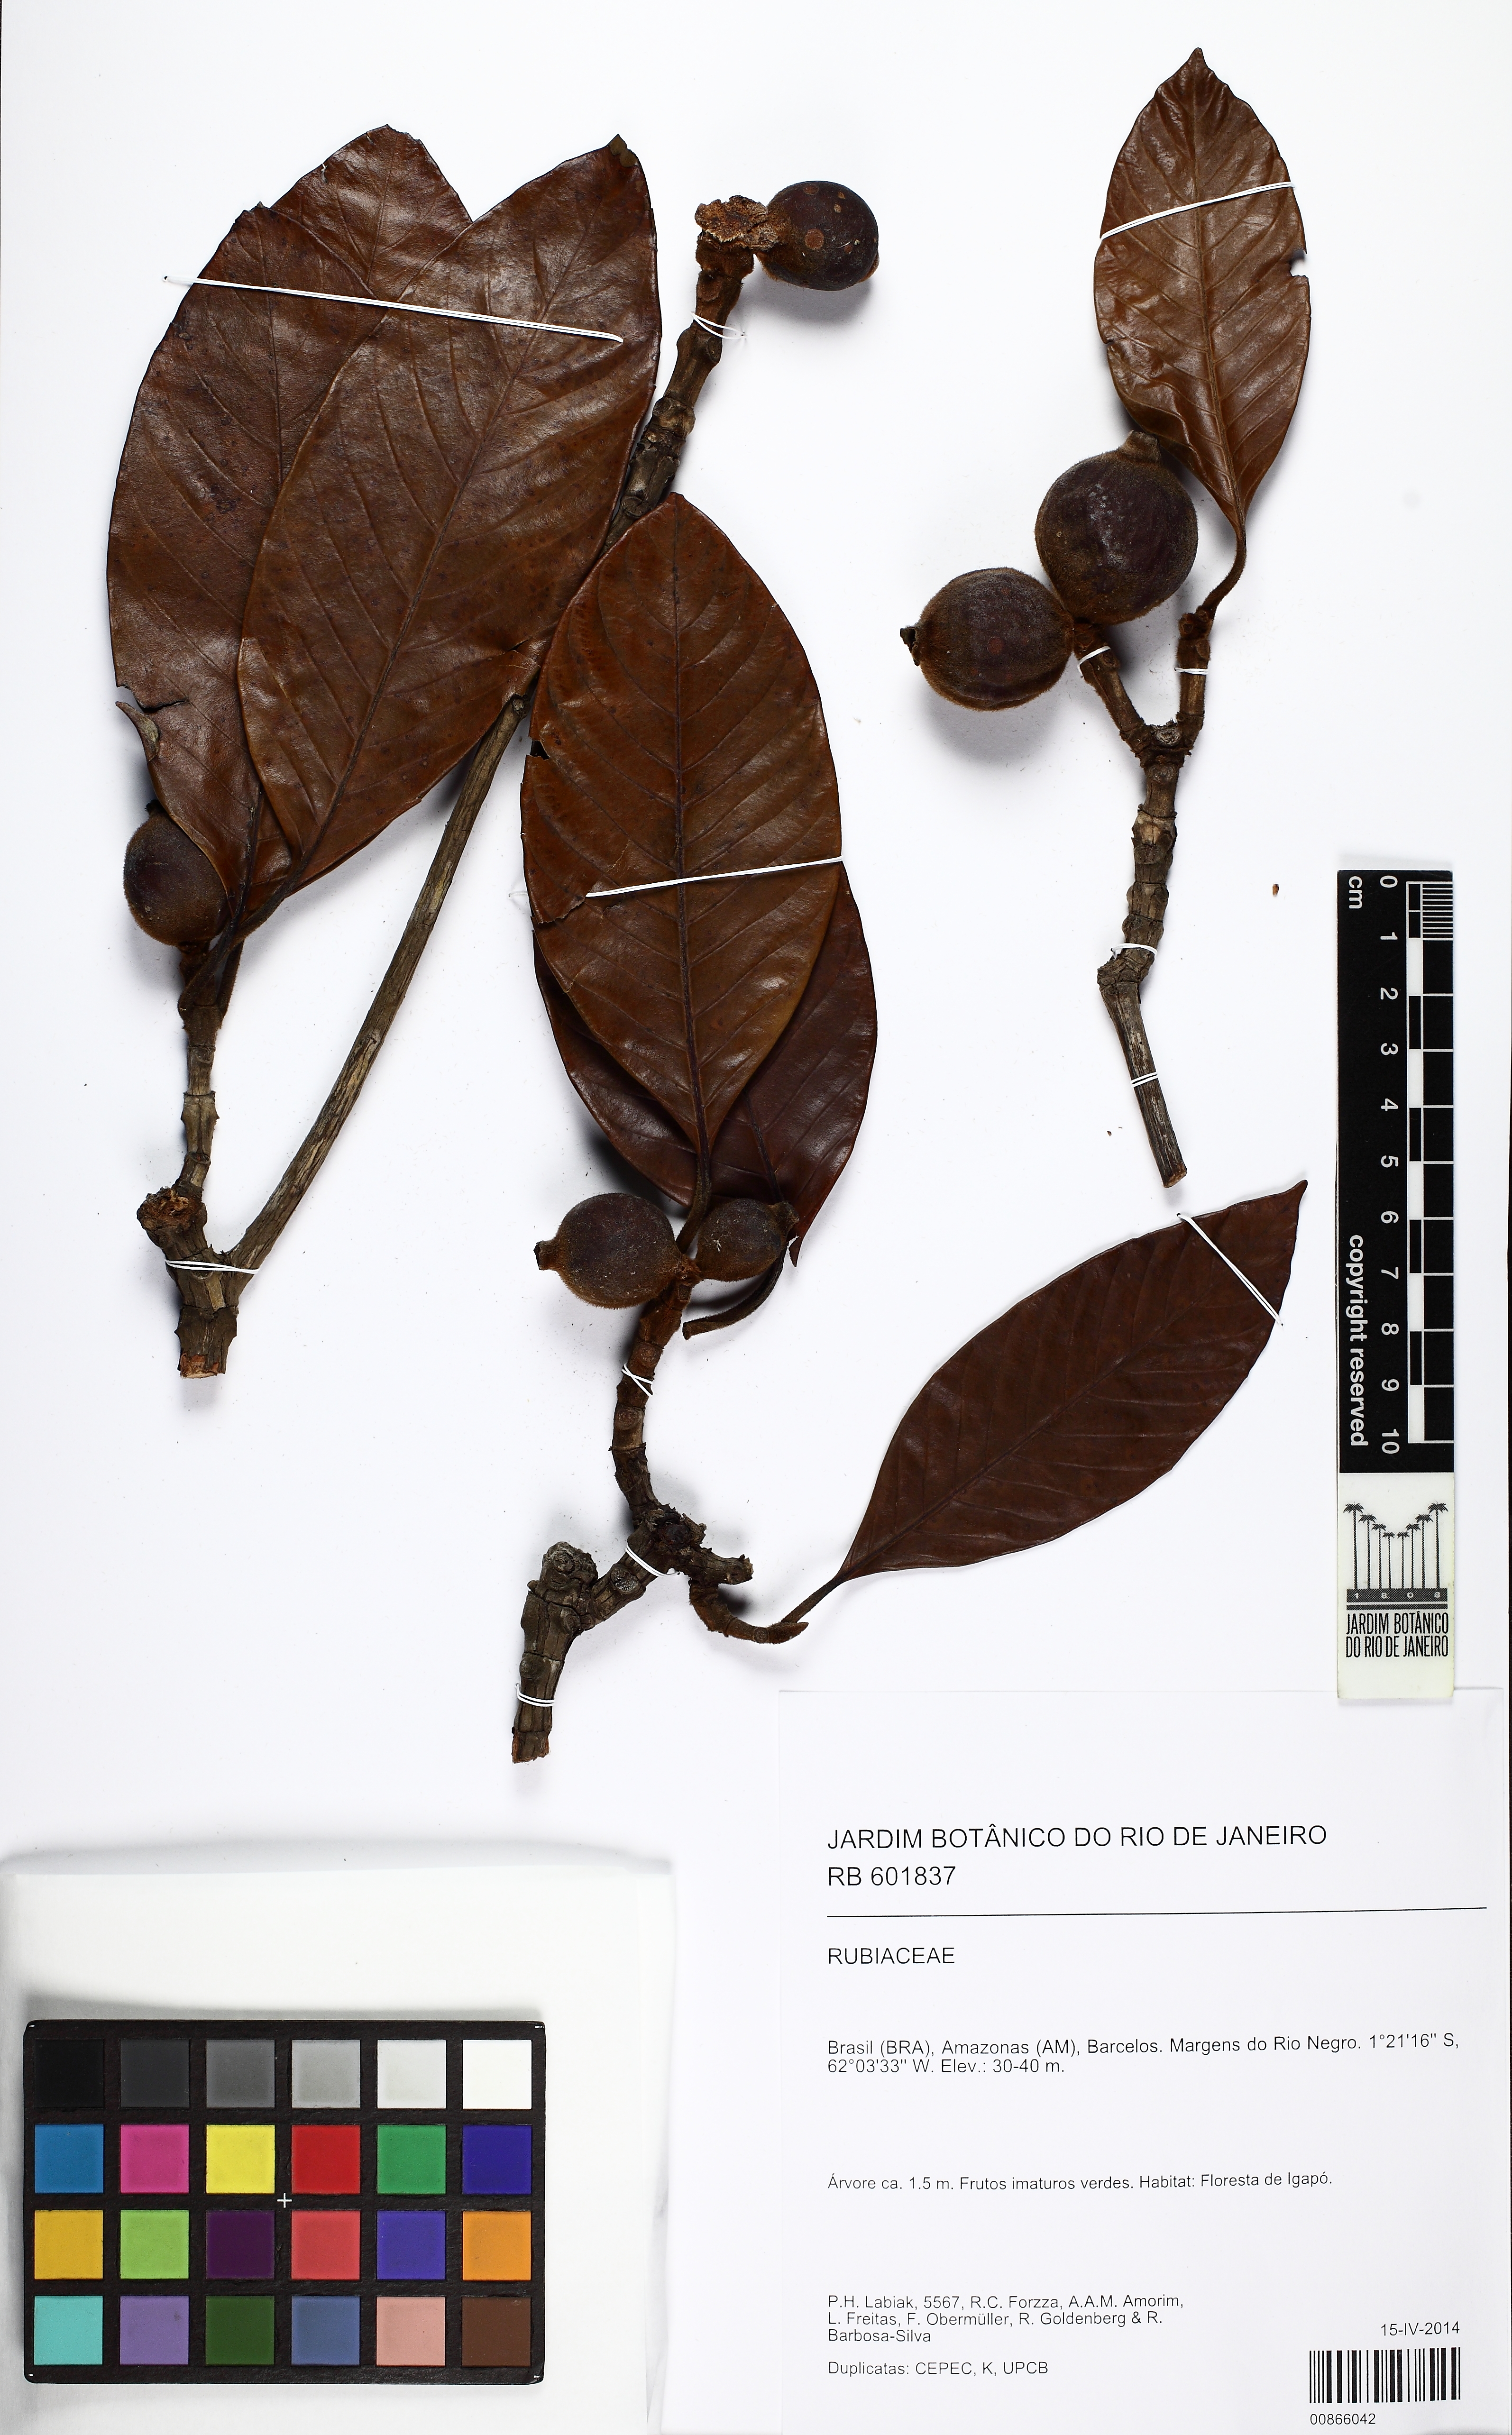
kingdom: Plantae
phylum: Tracheophyta
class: Magnoliopsida
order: Gentianales
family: Rubiaceae
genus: Duroia
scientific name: Duroia velutina
